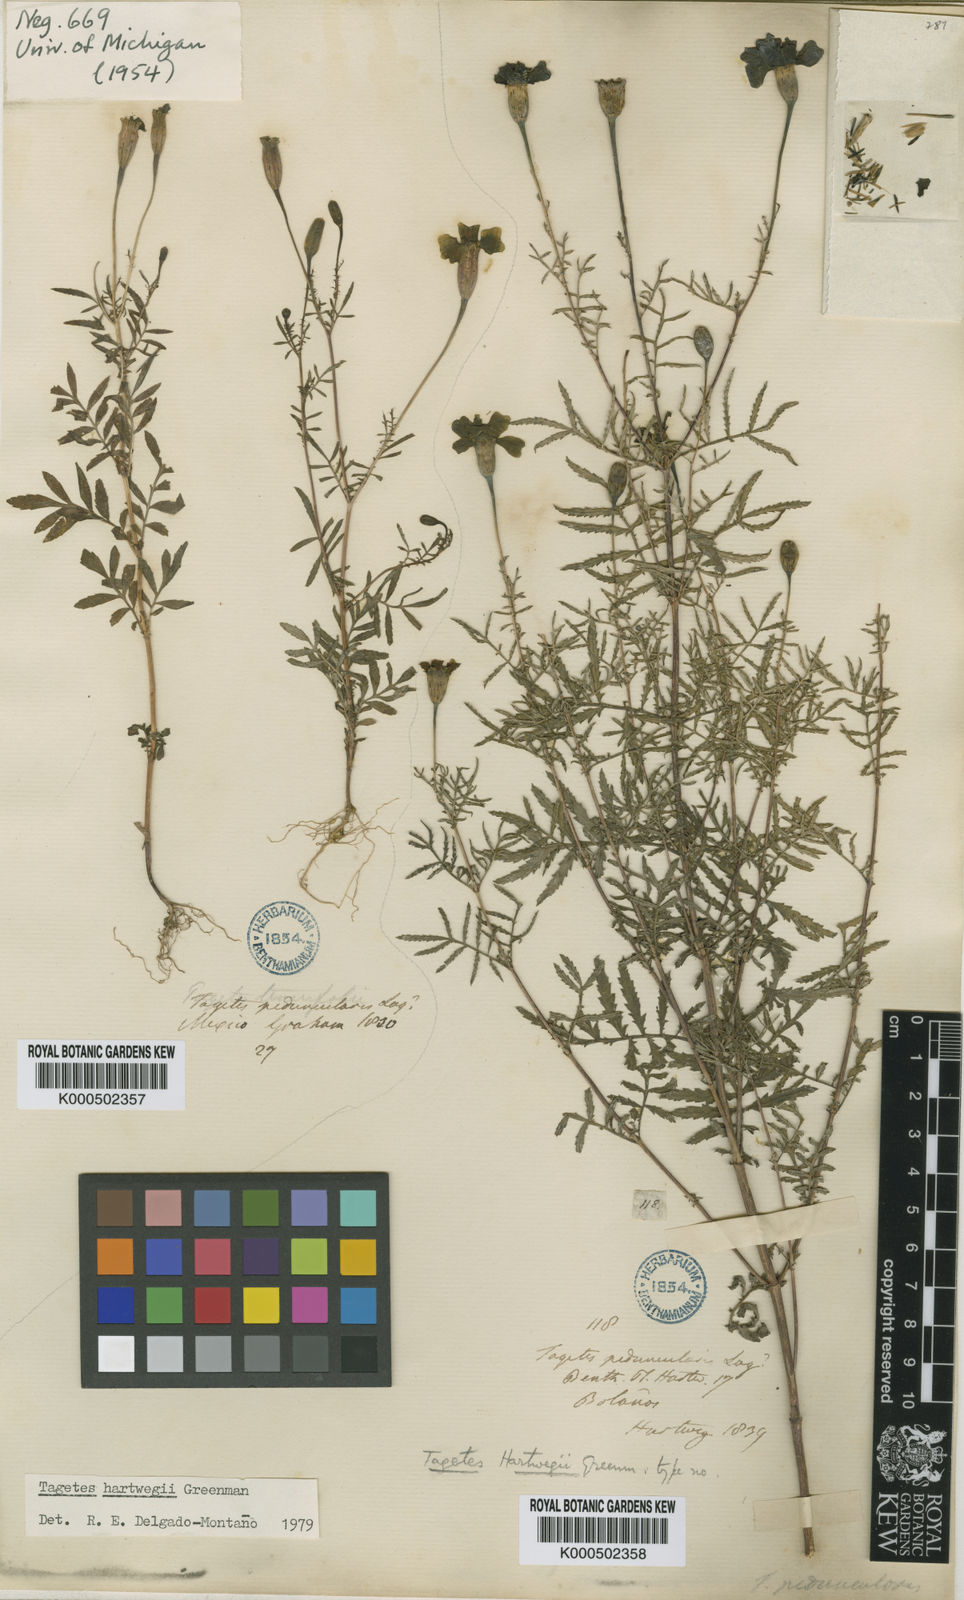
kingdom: Plantae
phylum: Tracheophyta
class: Magnoliopsida
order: Asterales
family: Asteraceae
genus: Tagetes
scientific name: Tagetes hartwegii
